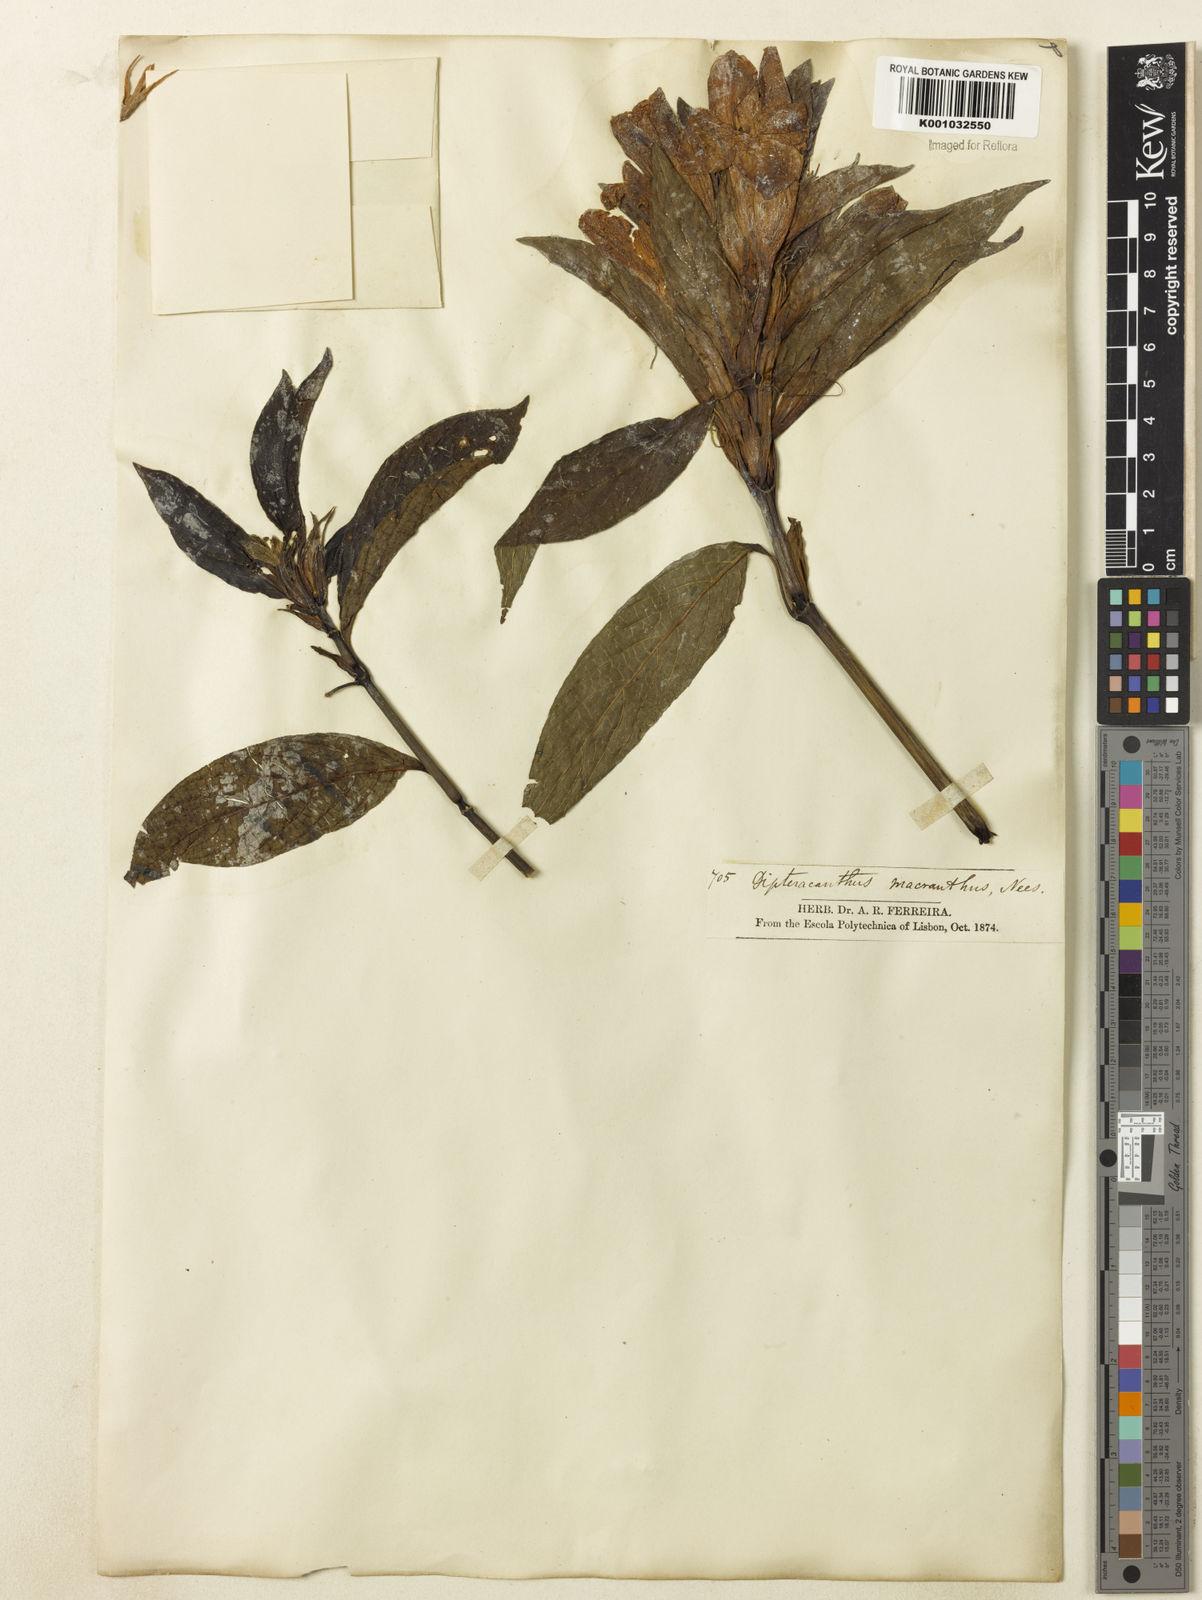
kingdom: Plantae
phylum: Tracheophyta
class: Magnoliopsida
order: Lamiales
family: Acanthaceae
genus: Ruellia
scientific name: Ruellia
